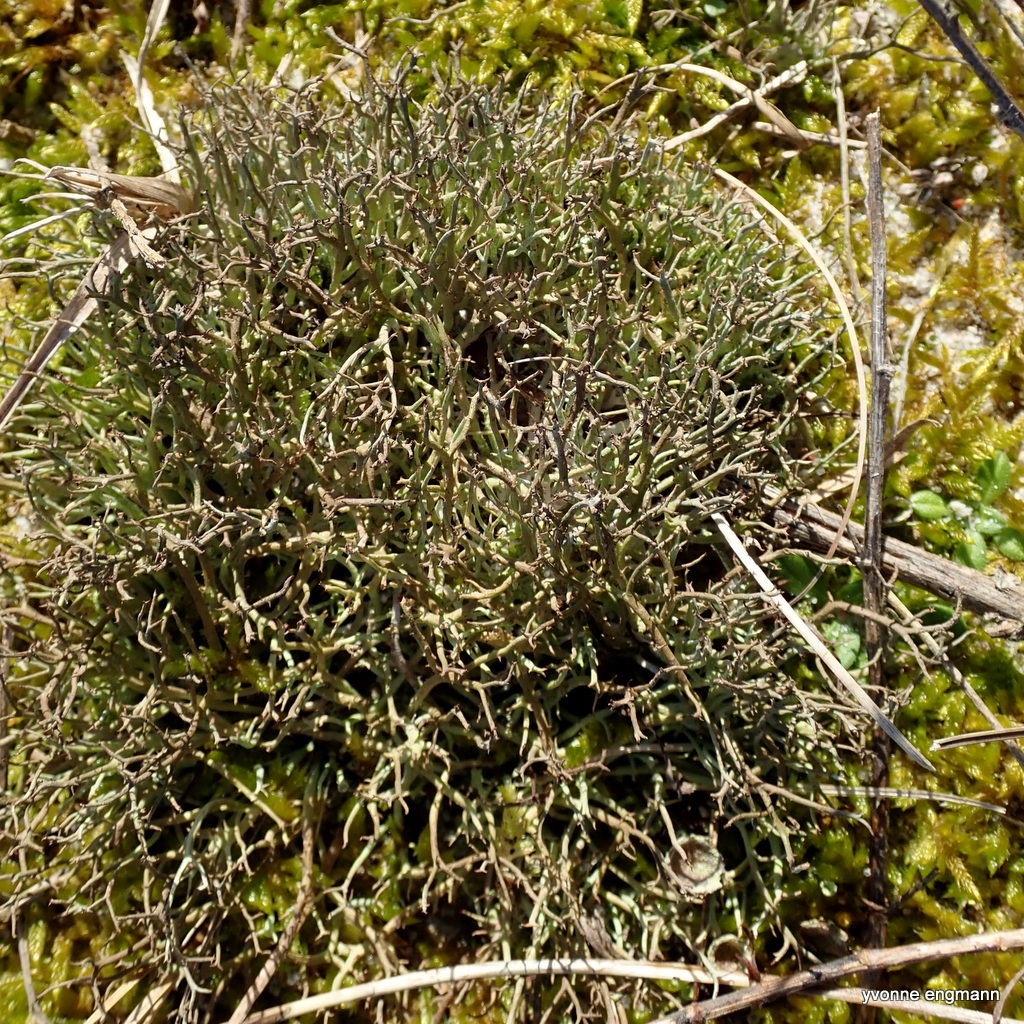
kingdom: Fungi
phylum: Ascomycota
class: Lecanoromycetes
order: Lecanorales
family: Cladoniaceae
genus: Cladonia
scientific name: Cladonia furcata
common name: kløftet bægerlav
